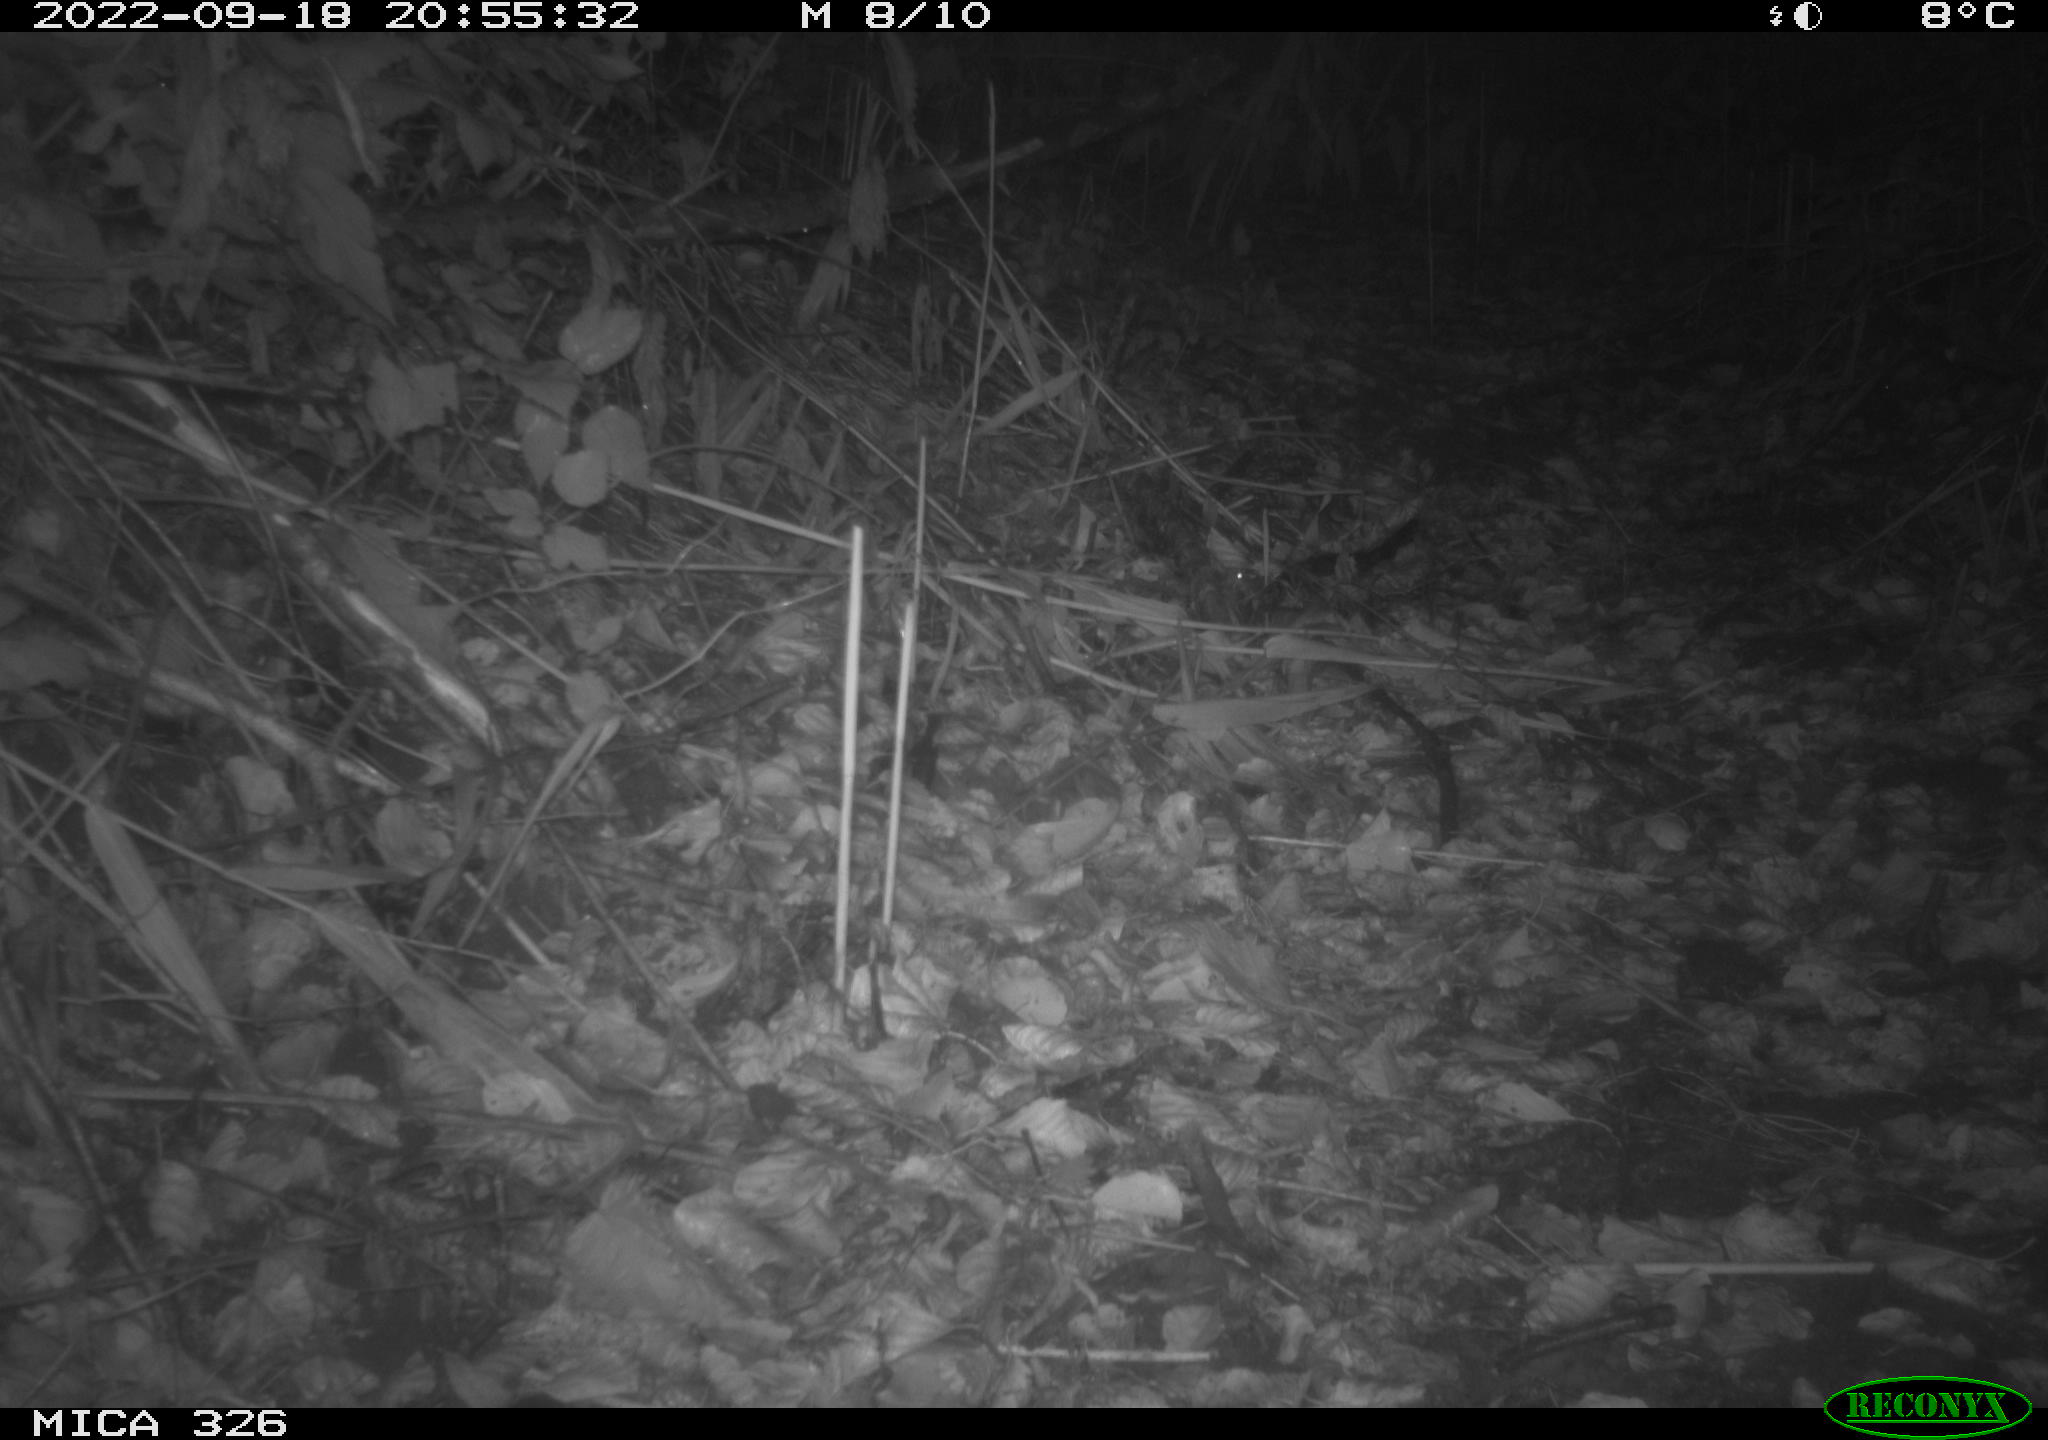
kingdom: Animalia
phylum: Chordata
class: Mammalia
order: Rodentia
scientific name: Rodentia
